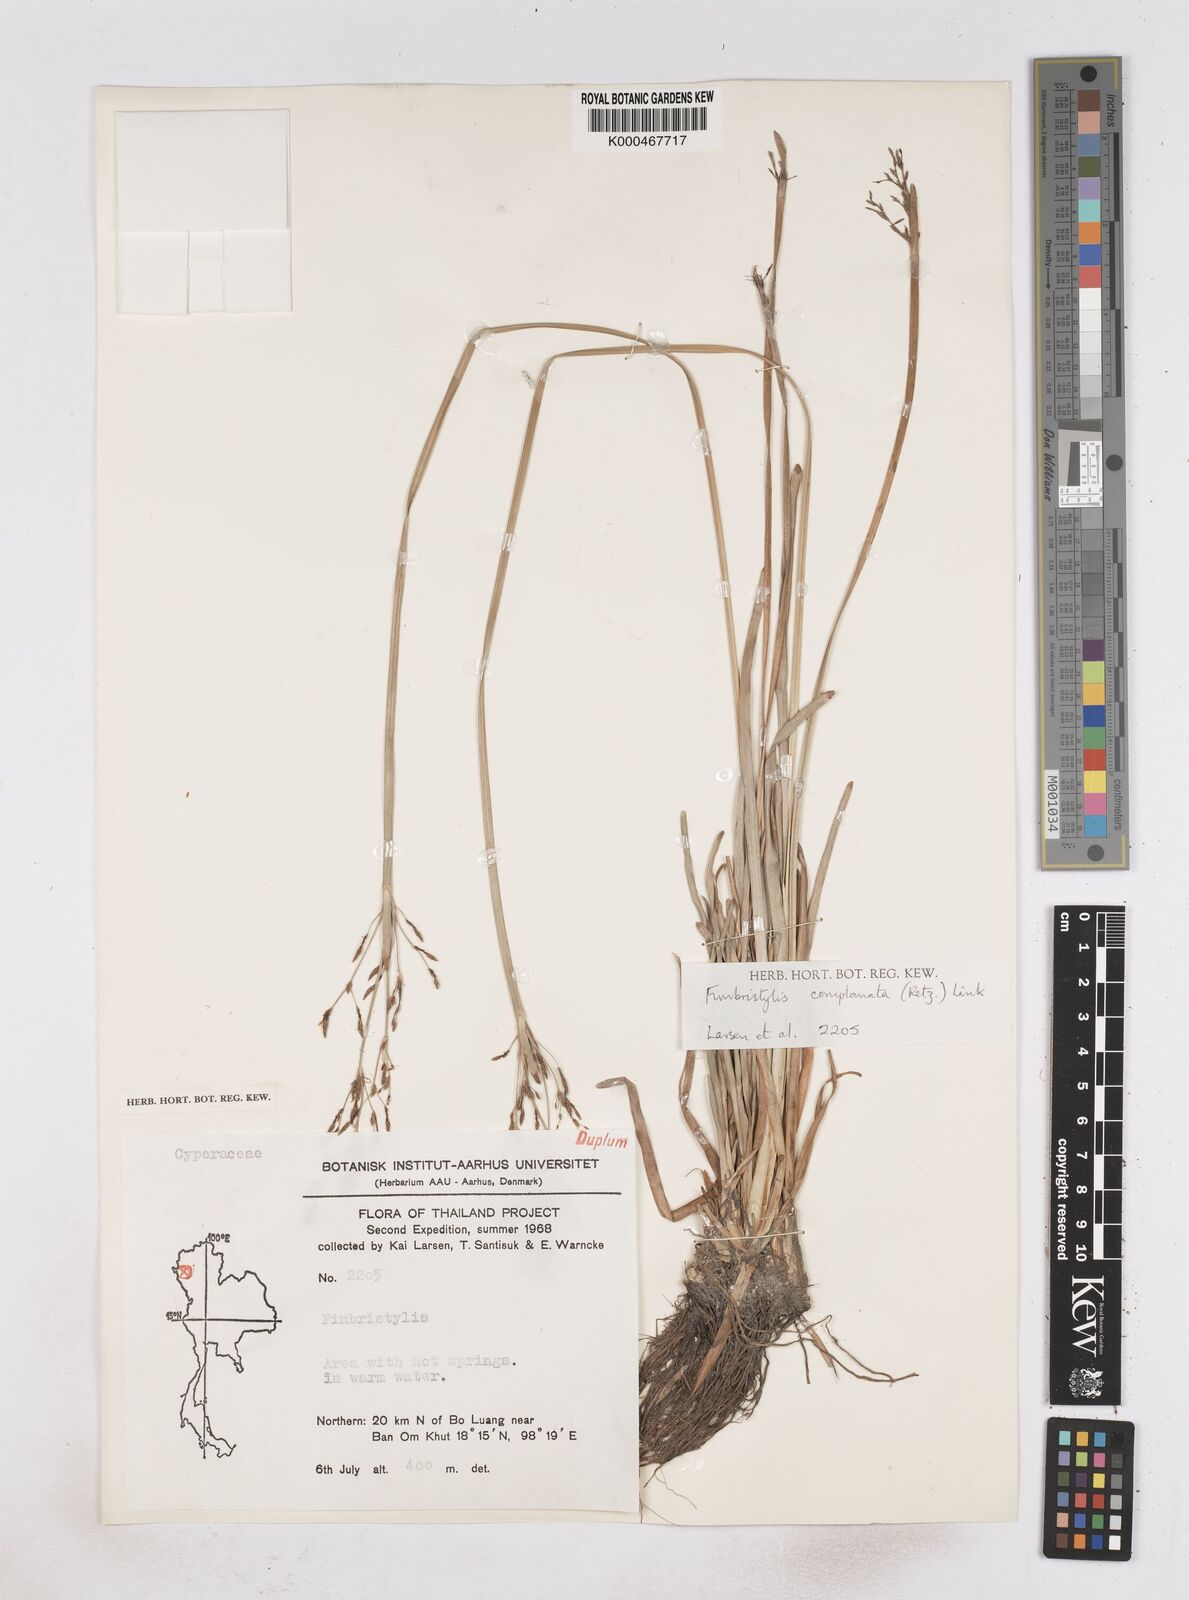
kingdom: Plantae
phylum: Tracheophyta
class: Liliopsida
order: Poales
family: Cyperaceae
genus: Fimbristylis
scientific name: Fimbristylis complanata
